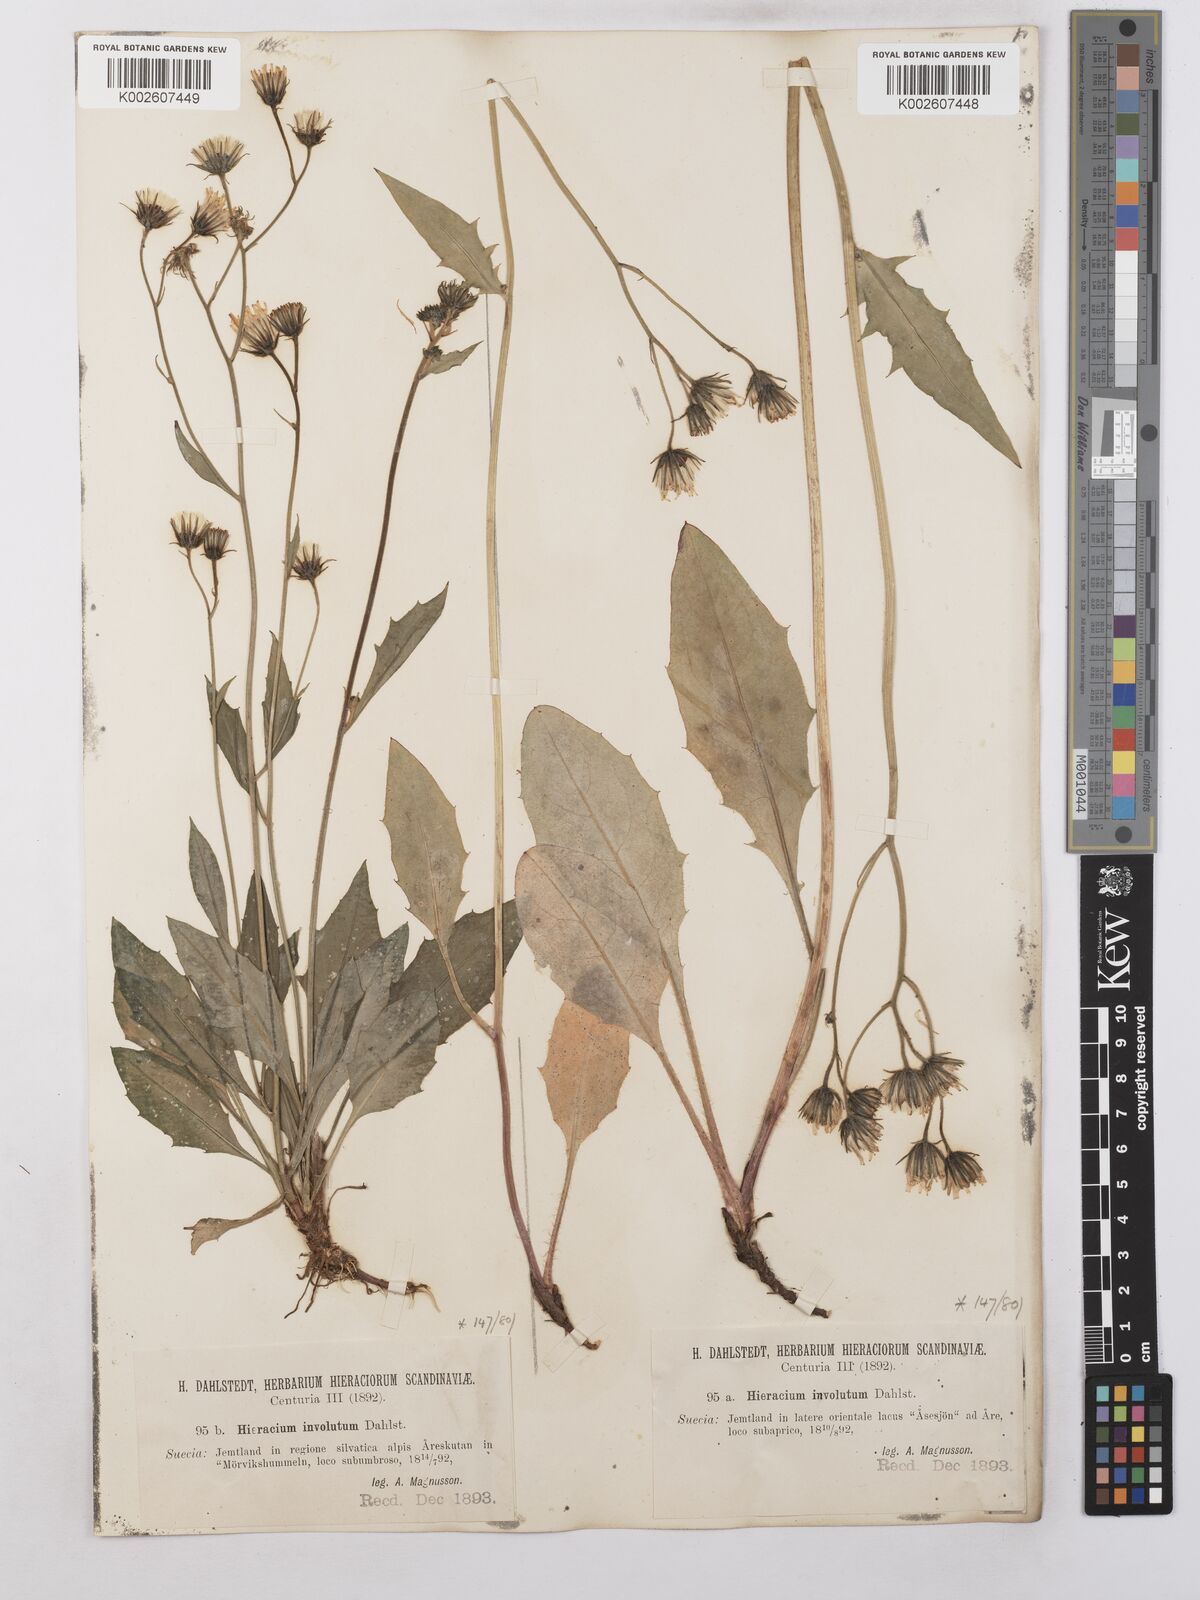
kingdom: Plantae
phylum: Tracheophyta
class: Magnoliopsida
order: Asterales
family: Asteraceae
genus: Hieracium
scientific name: Hieracium caesium
